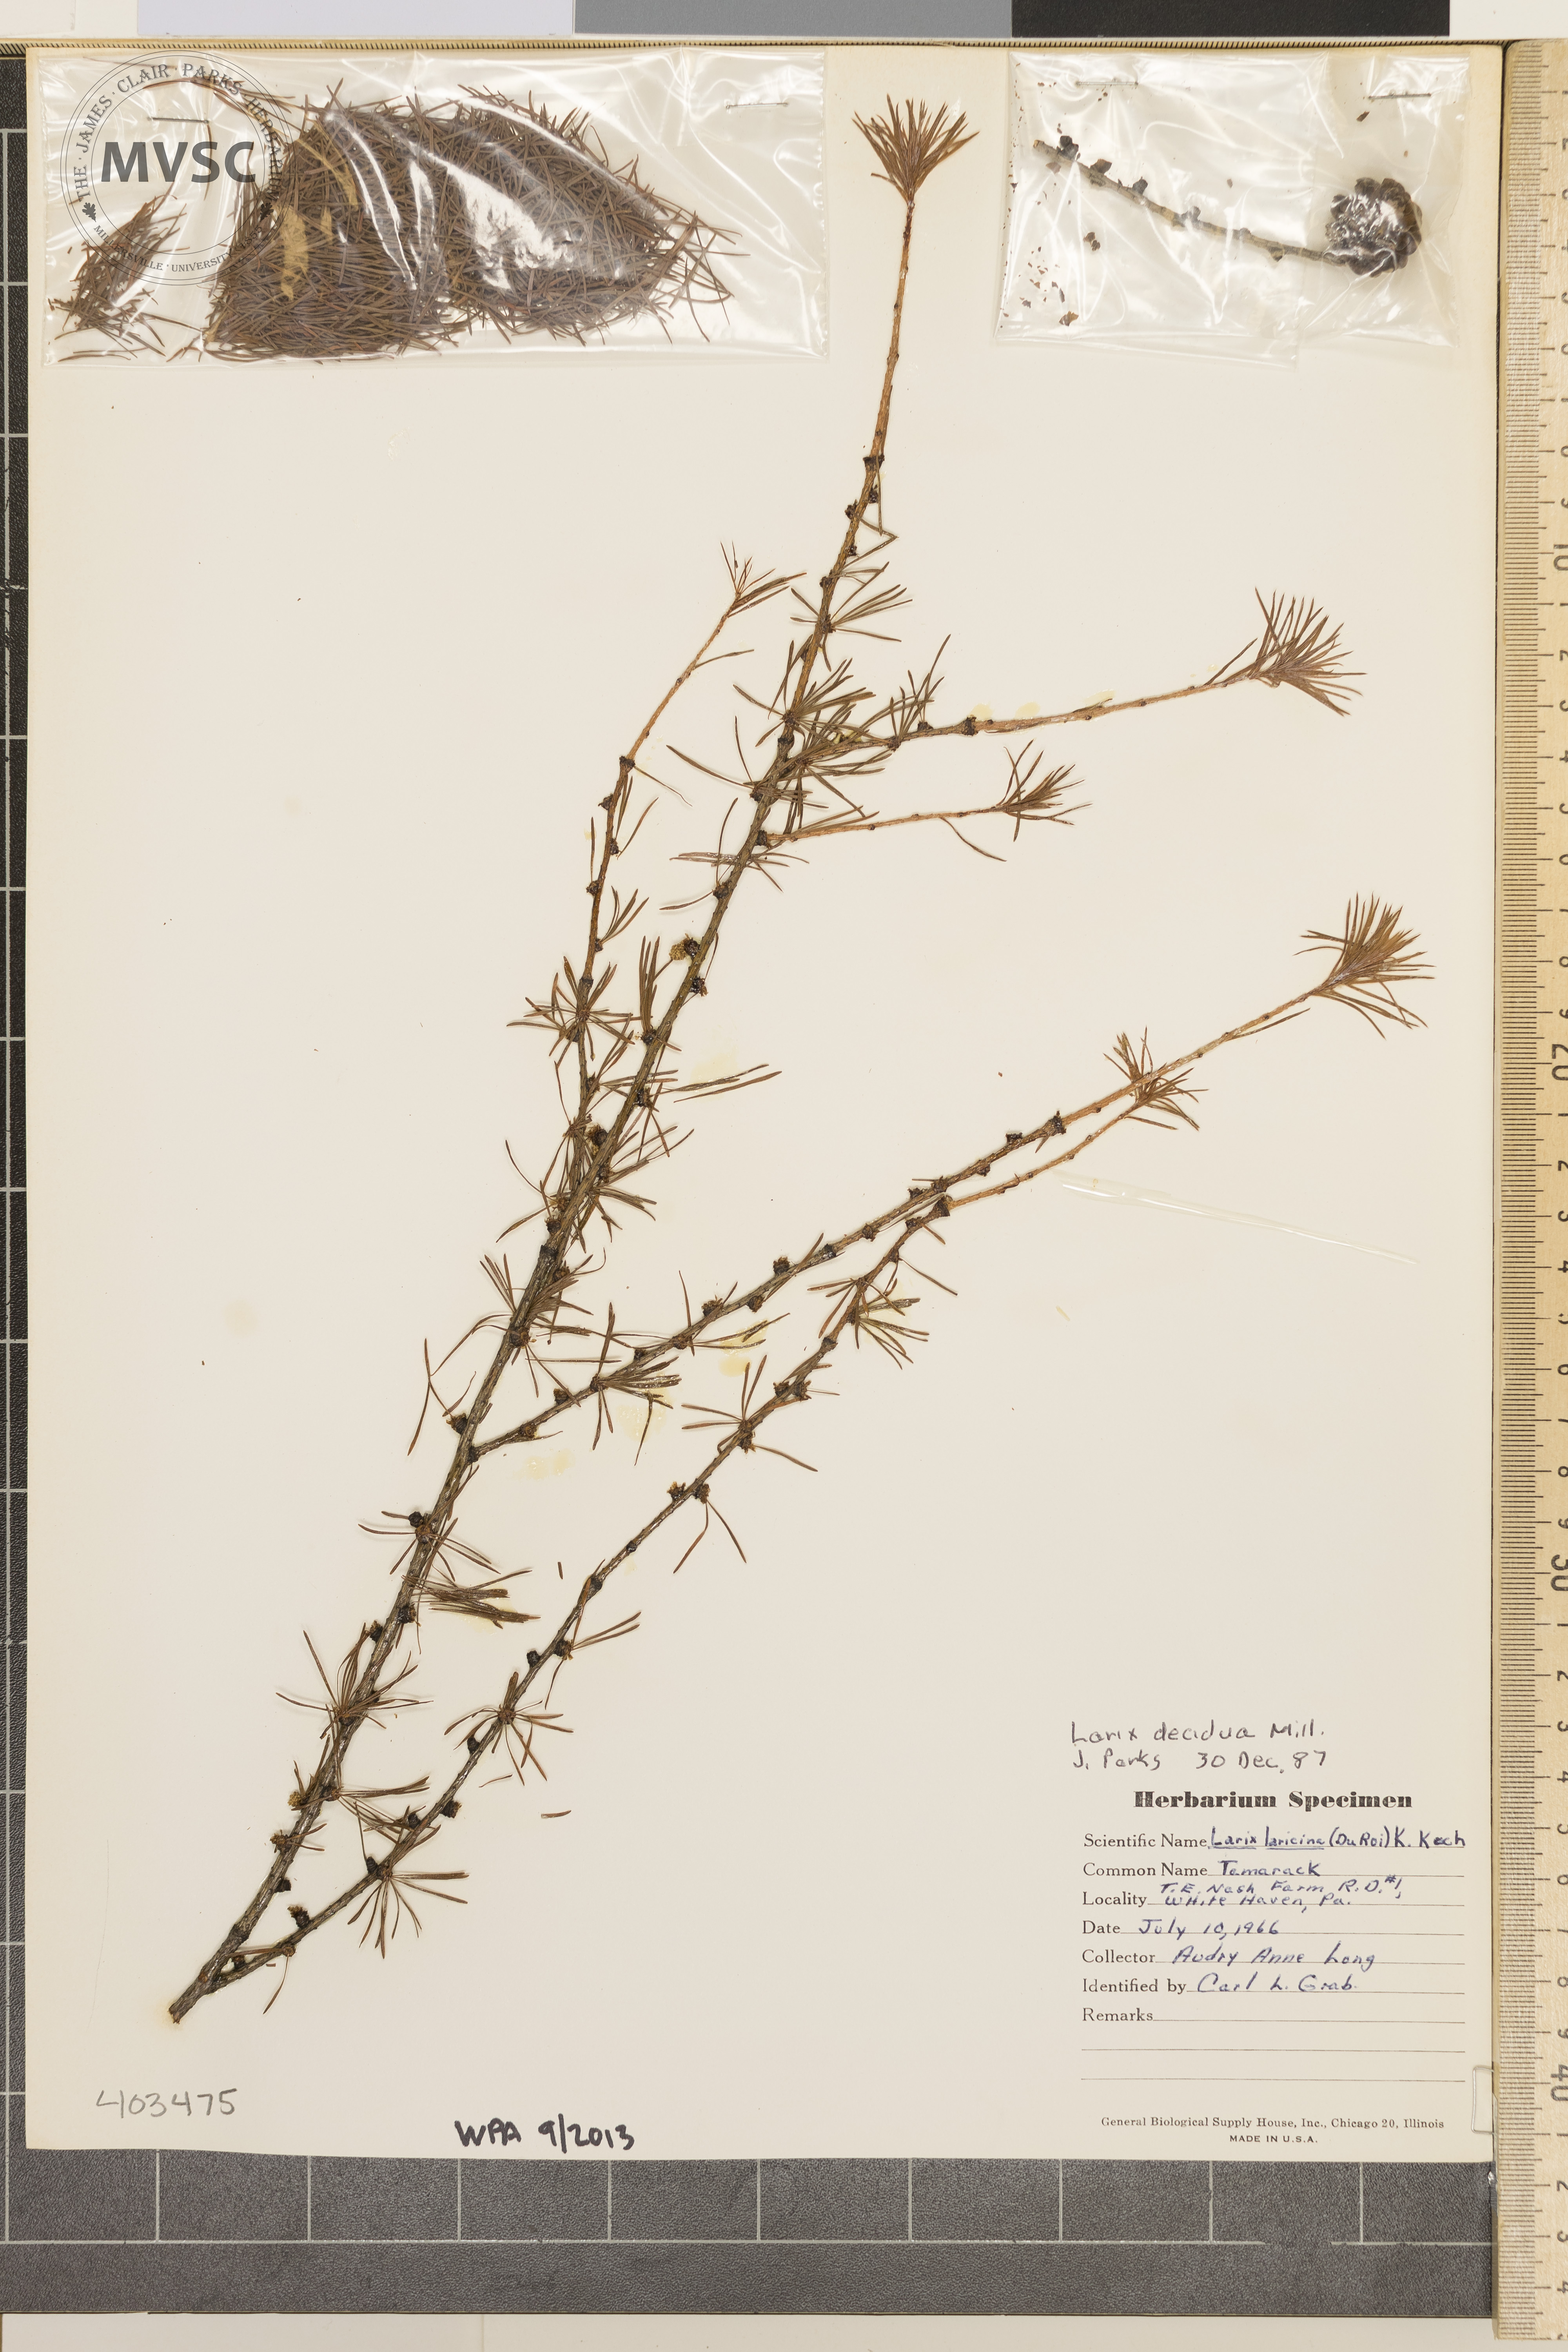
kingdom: Plantae
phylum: Tracheophyta
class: Pinopsida
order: Pinales
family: Pinaceae
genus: Larix
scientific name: Larix decidua
